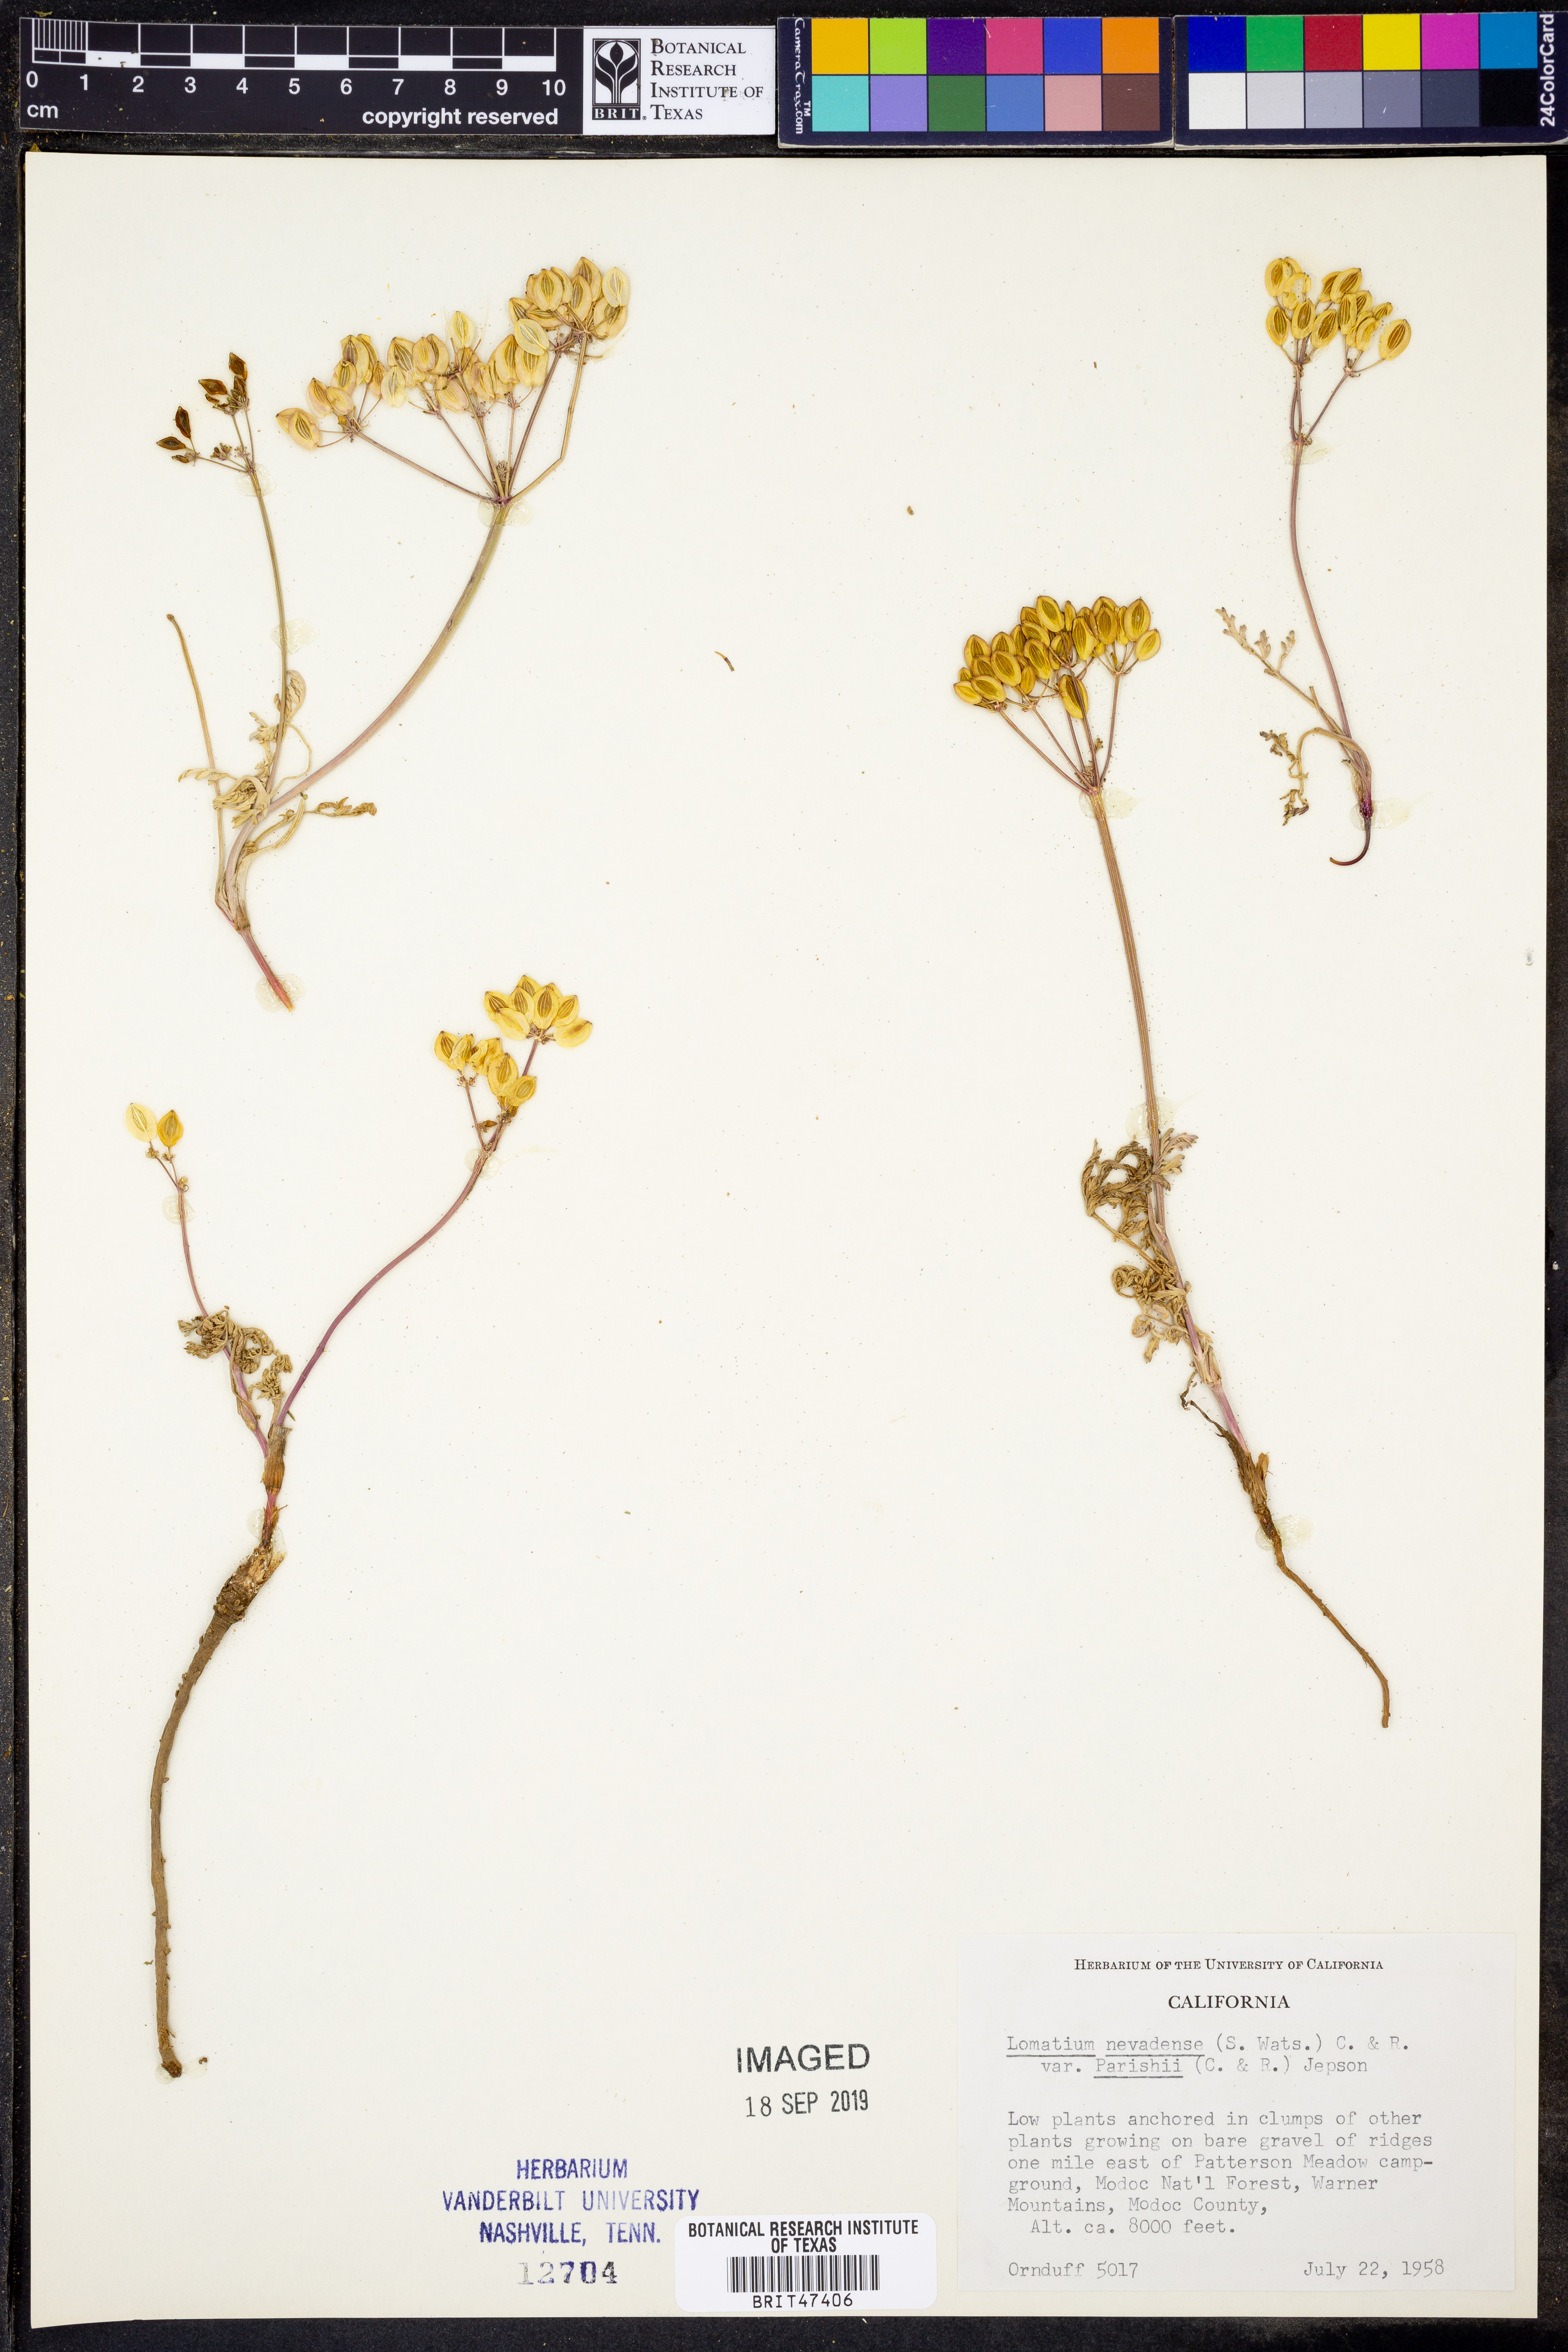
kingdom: Plantae
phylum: Tracheophyta
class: Magnoliopsida
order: Apiales
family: Apiaceae
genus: Lomatium
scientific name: Lomatium nevadense
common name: Nevada lomatium
